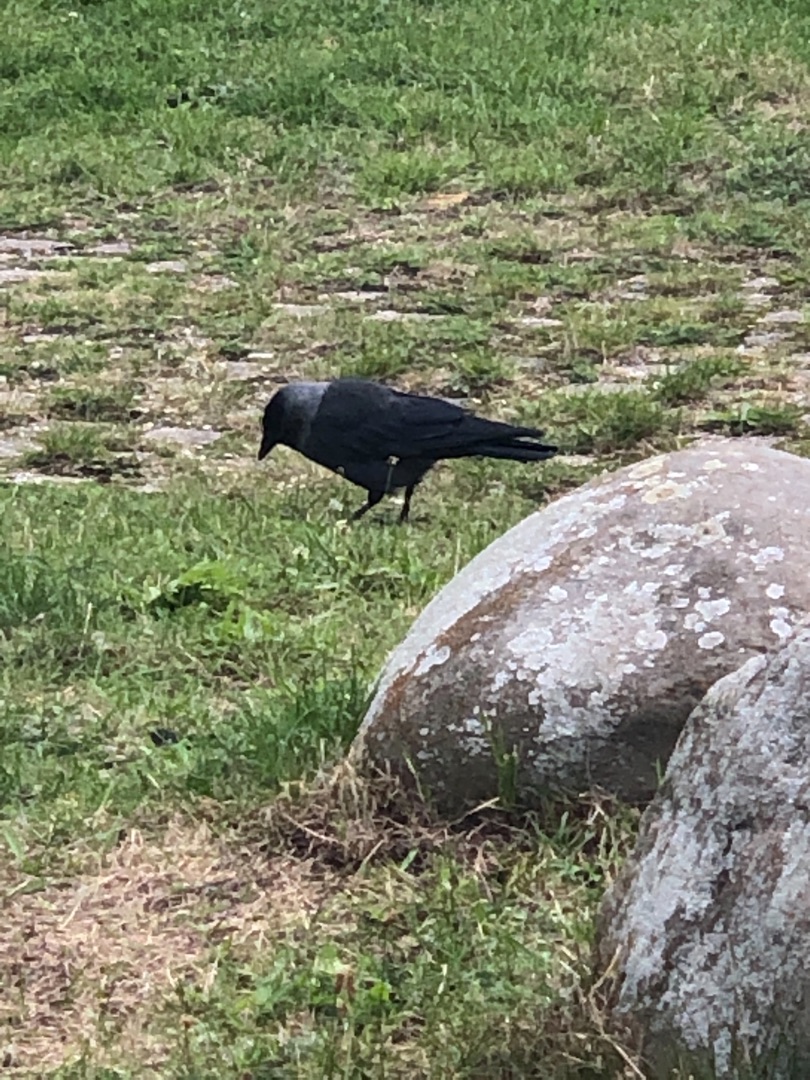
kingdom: Animalia
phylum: Chordata
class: Aves
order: Passeriformes
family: Corvidae
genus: Coloeus
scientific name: Coloeus monedula
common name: Allike
